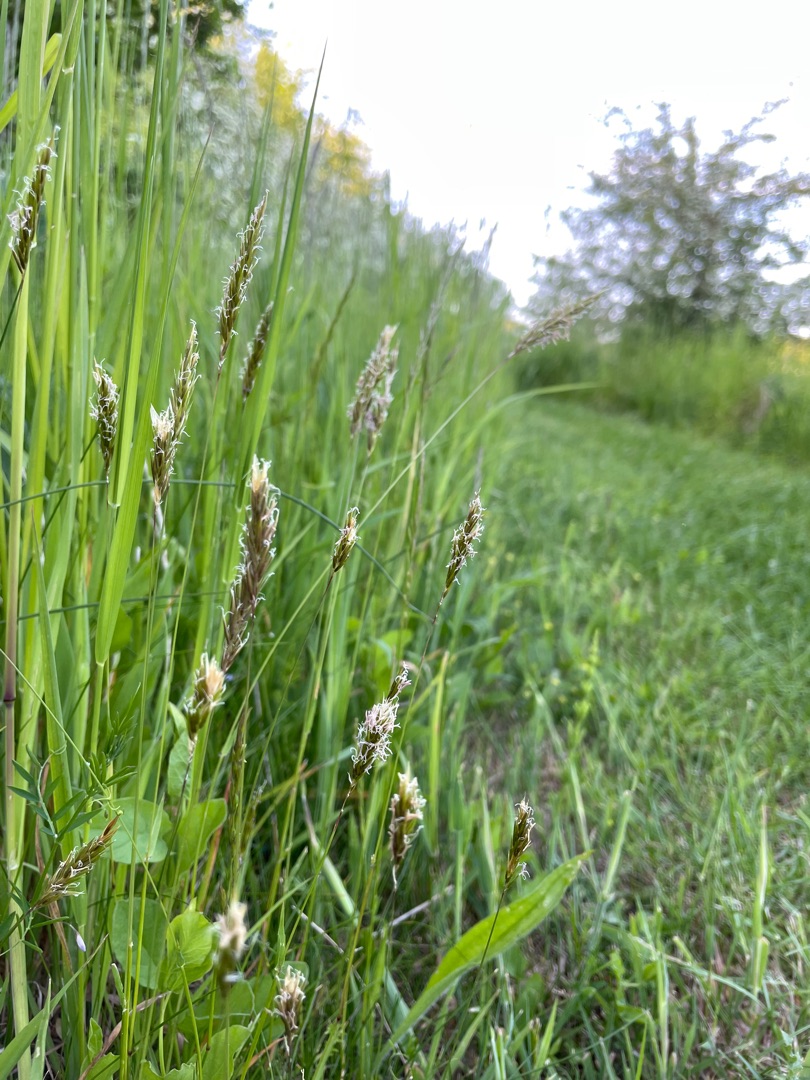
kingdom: Plantae
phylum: Tracheophyta
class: Liliopsida
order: Poales
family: Poaceae
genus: Anthoxanthum
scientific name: Anthoxanthum odoratum
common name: Vellugtende gulaks
